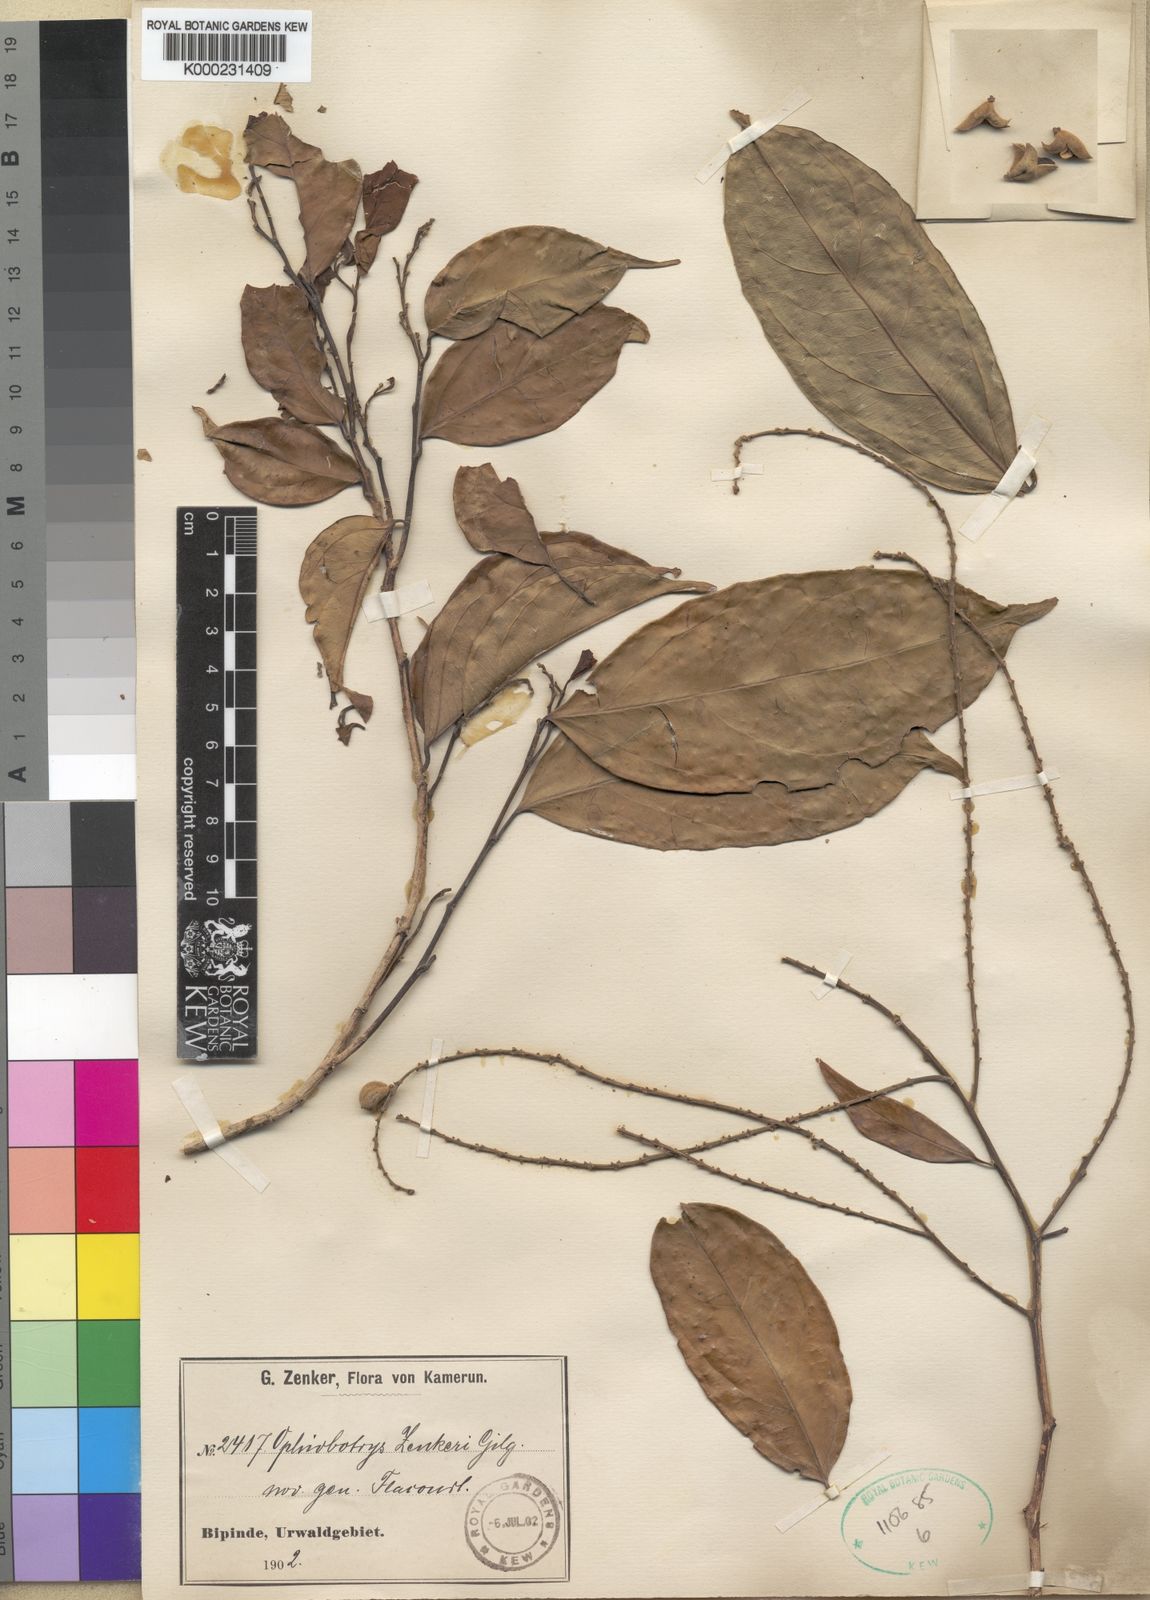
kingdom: Plantae
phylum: Tracheophyta
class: Magnoliopsida
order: Malpighiales
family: Salicaceae
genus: Ophiobotrys
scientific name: Ophiobotrys zenkeri
